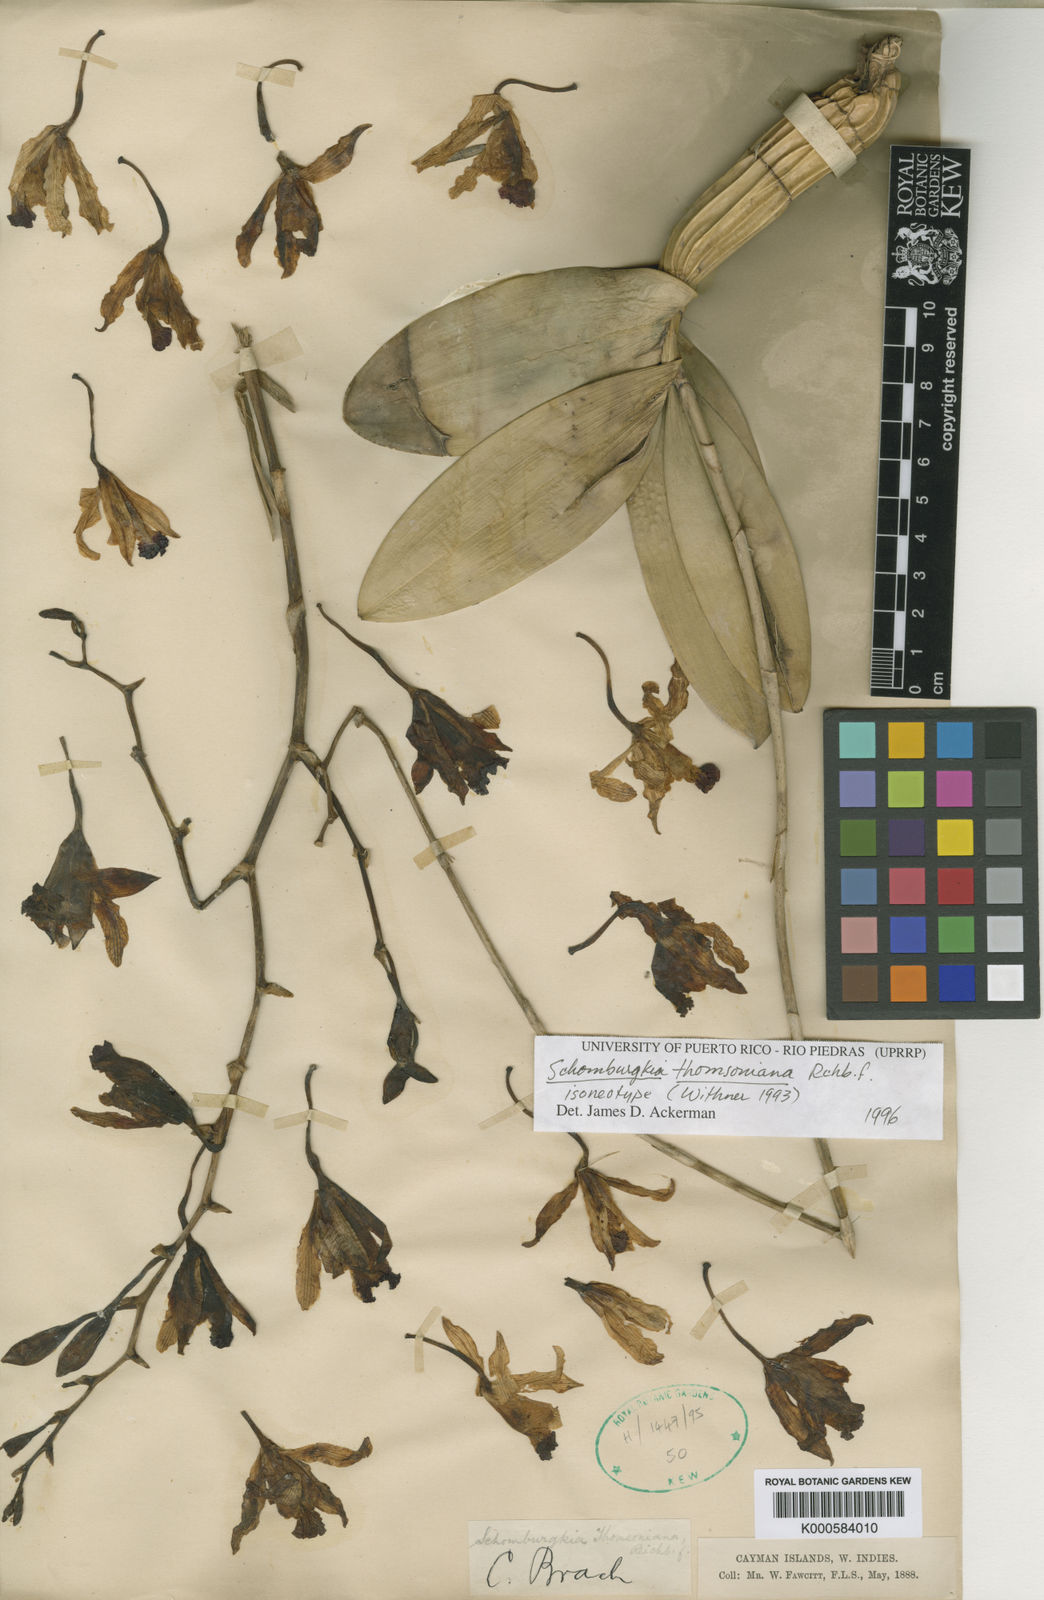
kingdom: Plantae
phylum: Tracheophyta
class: Liliopsida
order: Asparagales
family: Orchidaceae
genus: Myrmecophila
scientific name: Myrmecophila thomsoniana
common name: Banana orchid
